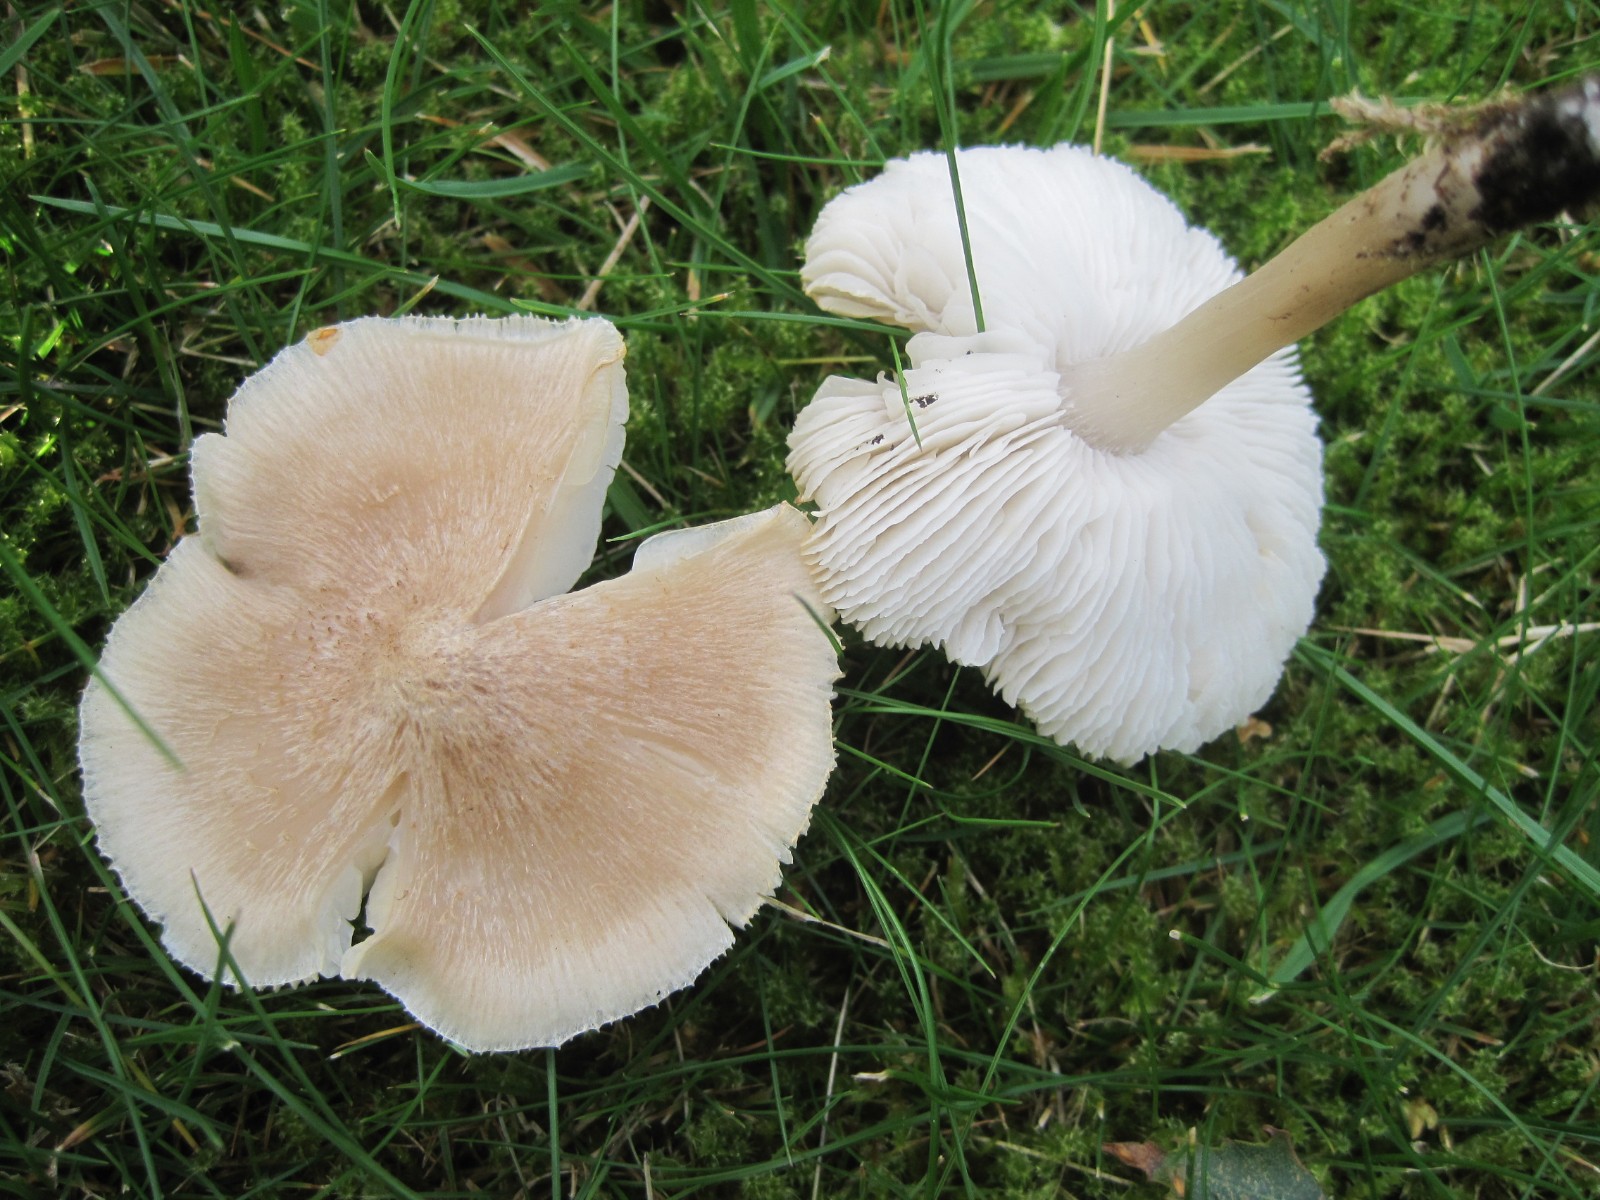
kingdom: Fungi
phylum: Basidiomycota
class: Agaricomycetes
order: Agaricales
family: Tricholomataceae
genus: Tricholoma
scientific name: Tricholoma argyraceum
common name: spids ridderhat
